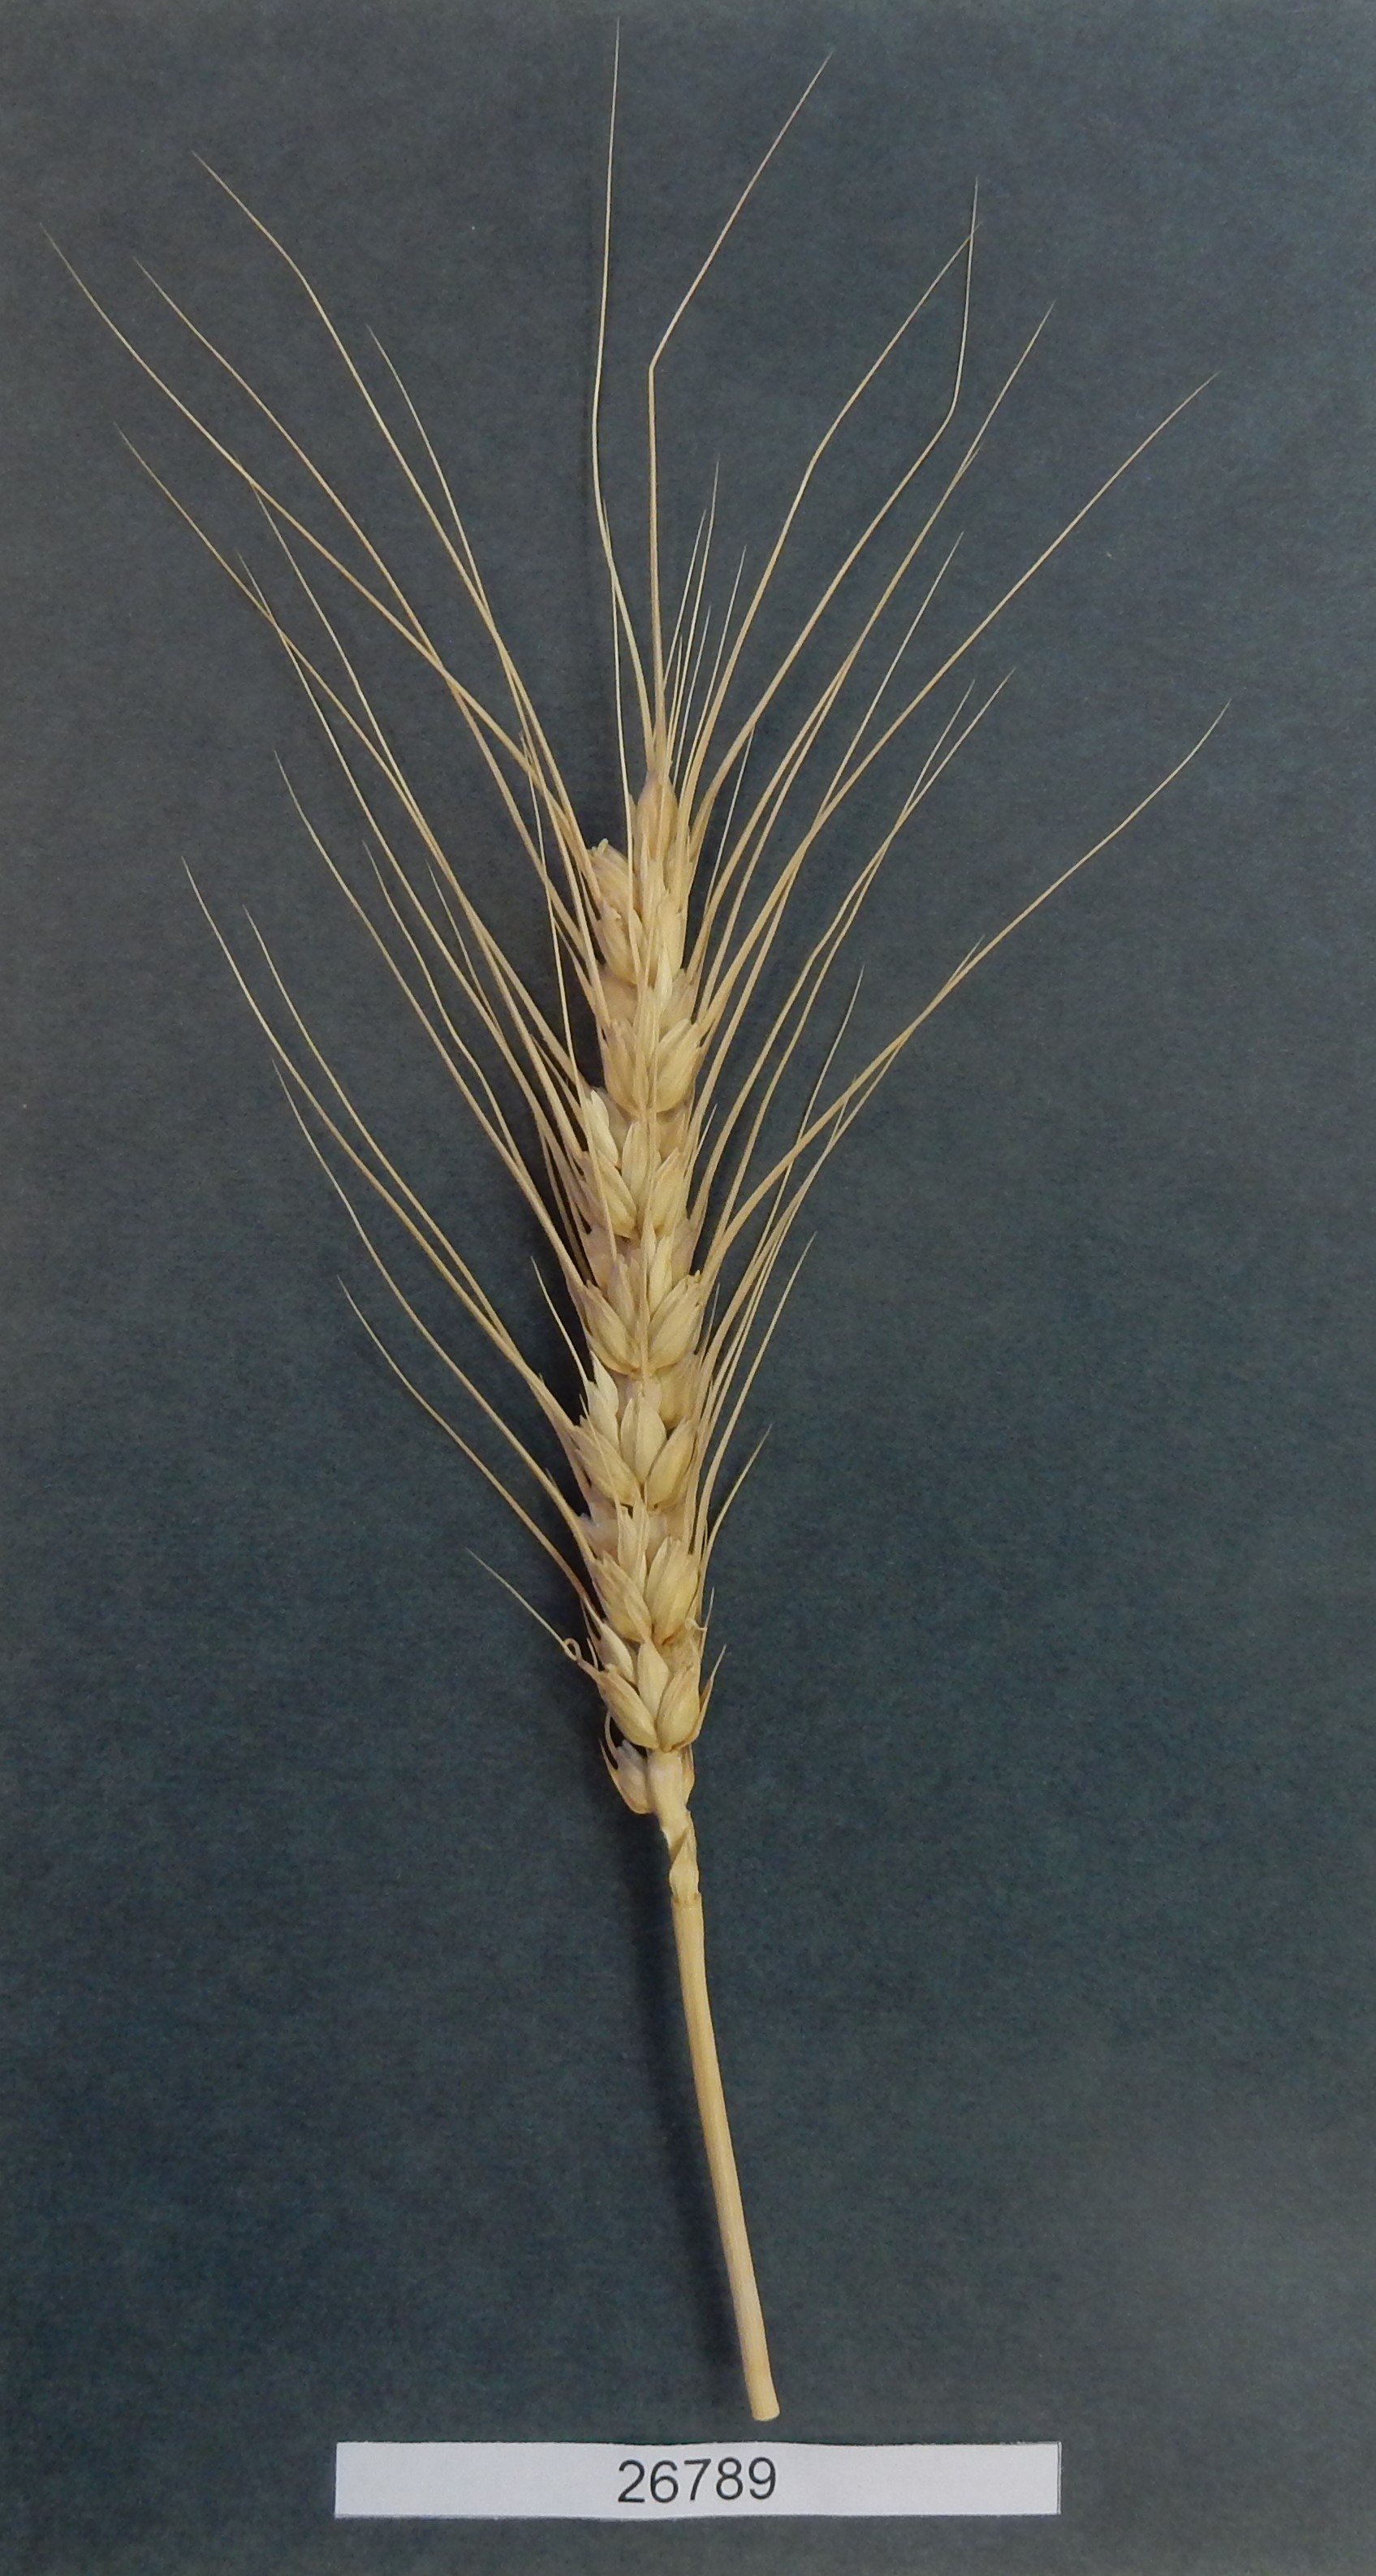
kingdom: Plantae
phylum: Tracheophyta
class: Liliopsida
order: Poales
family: Poaceae
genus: Triticum
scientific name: Triticum aestivum
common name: Common wheat
